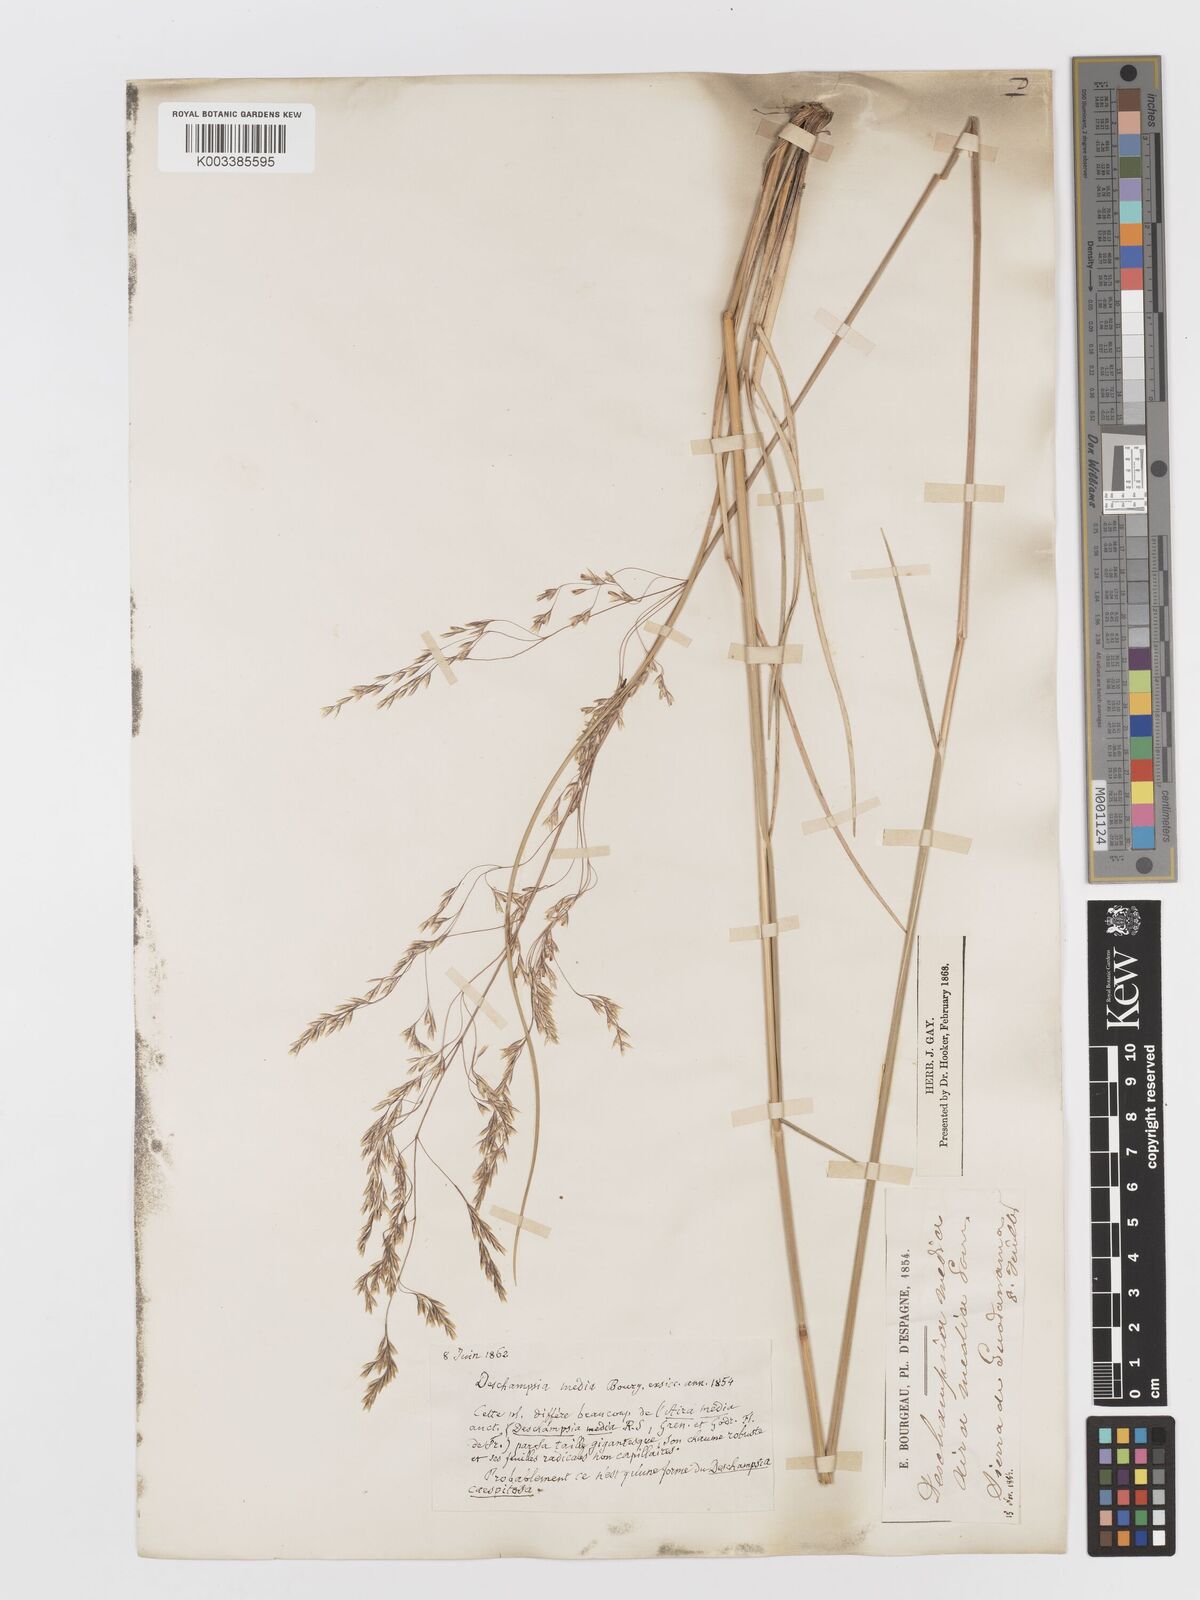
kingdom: Plantae
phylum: Tracheophyta
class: Liliopsida
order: Poales
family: Poaceae
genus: Deschampsia
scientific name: Deschampsia media
